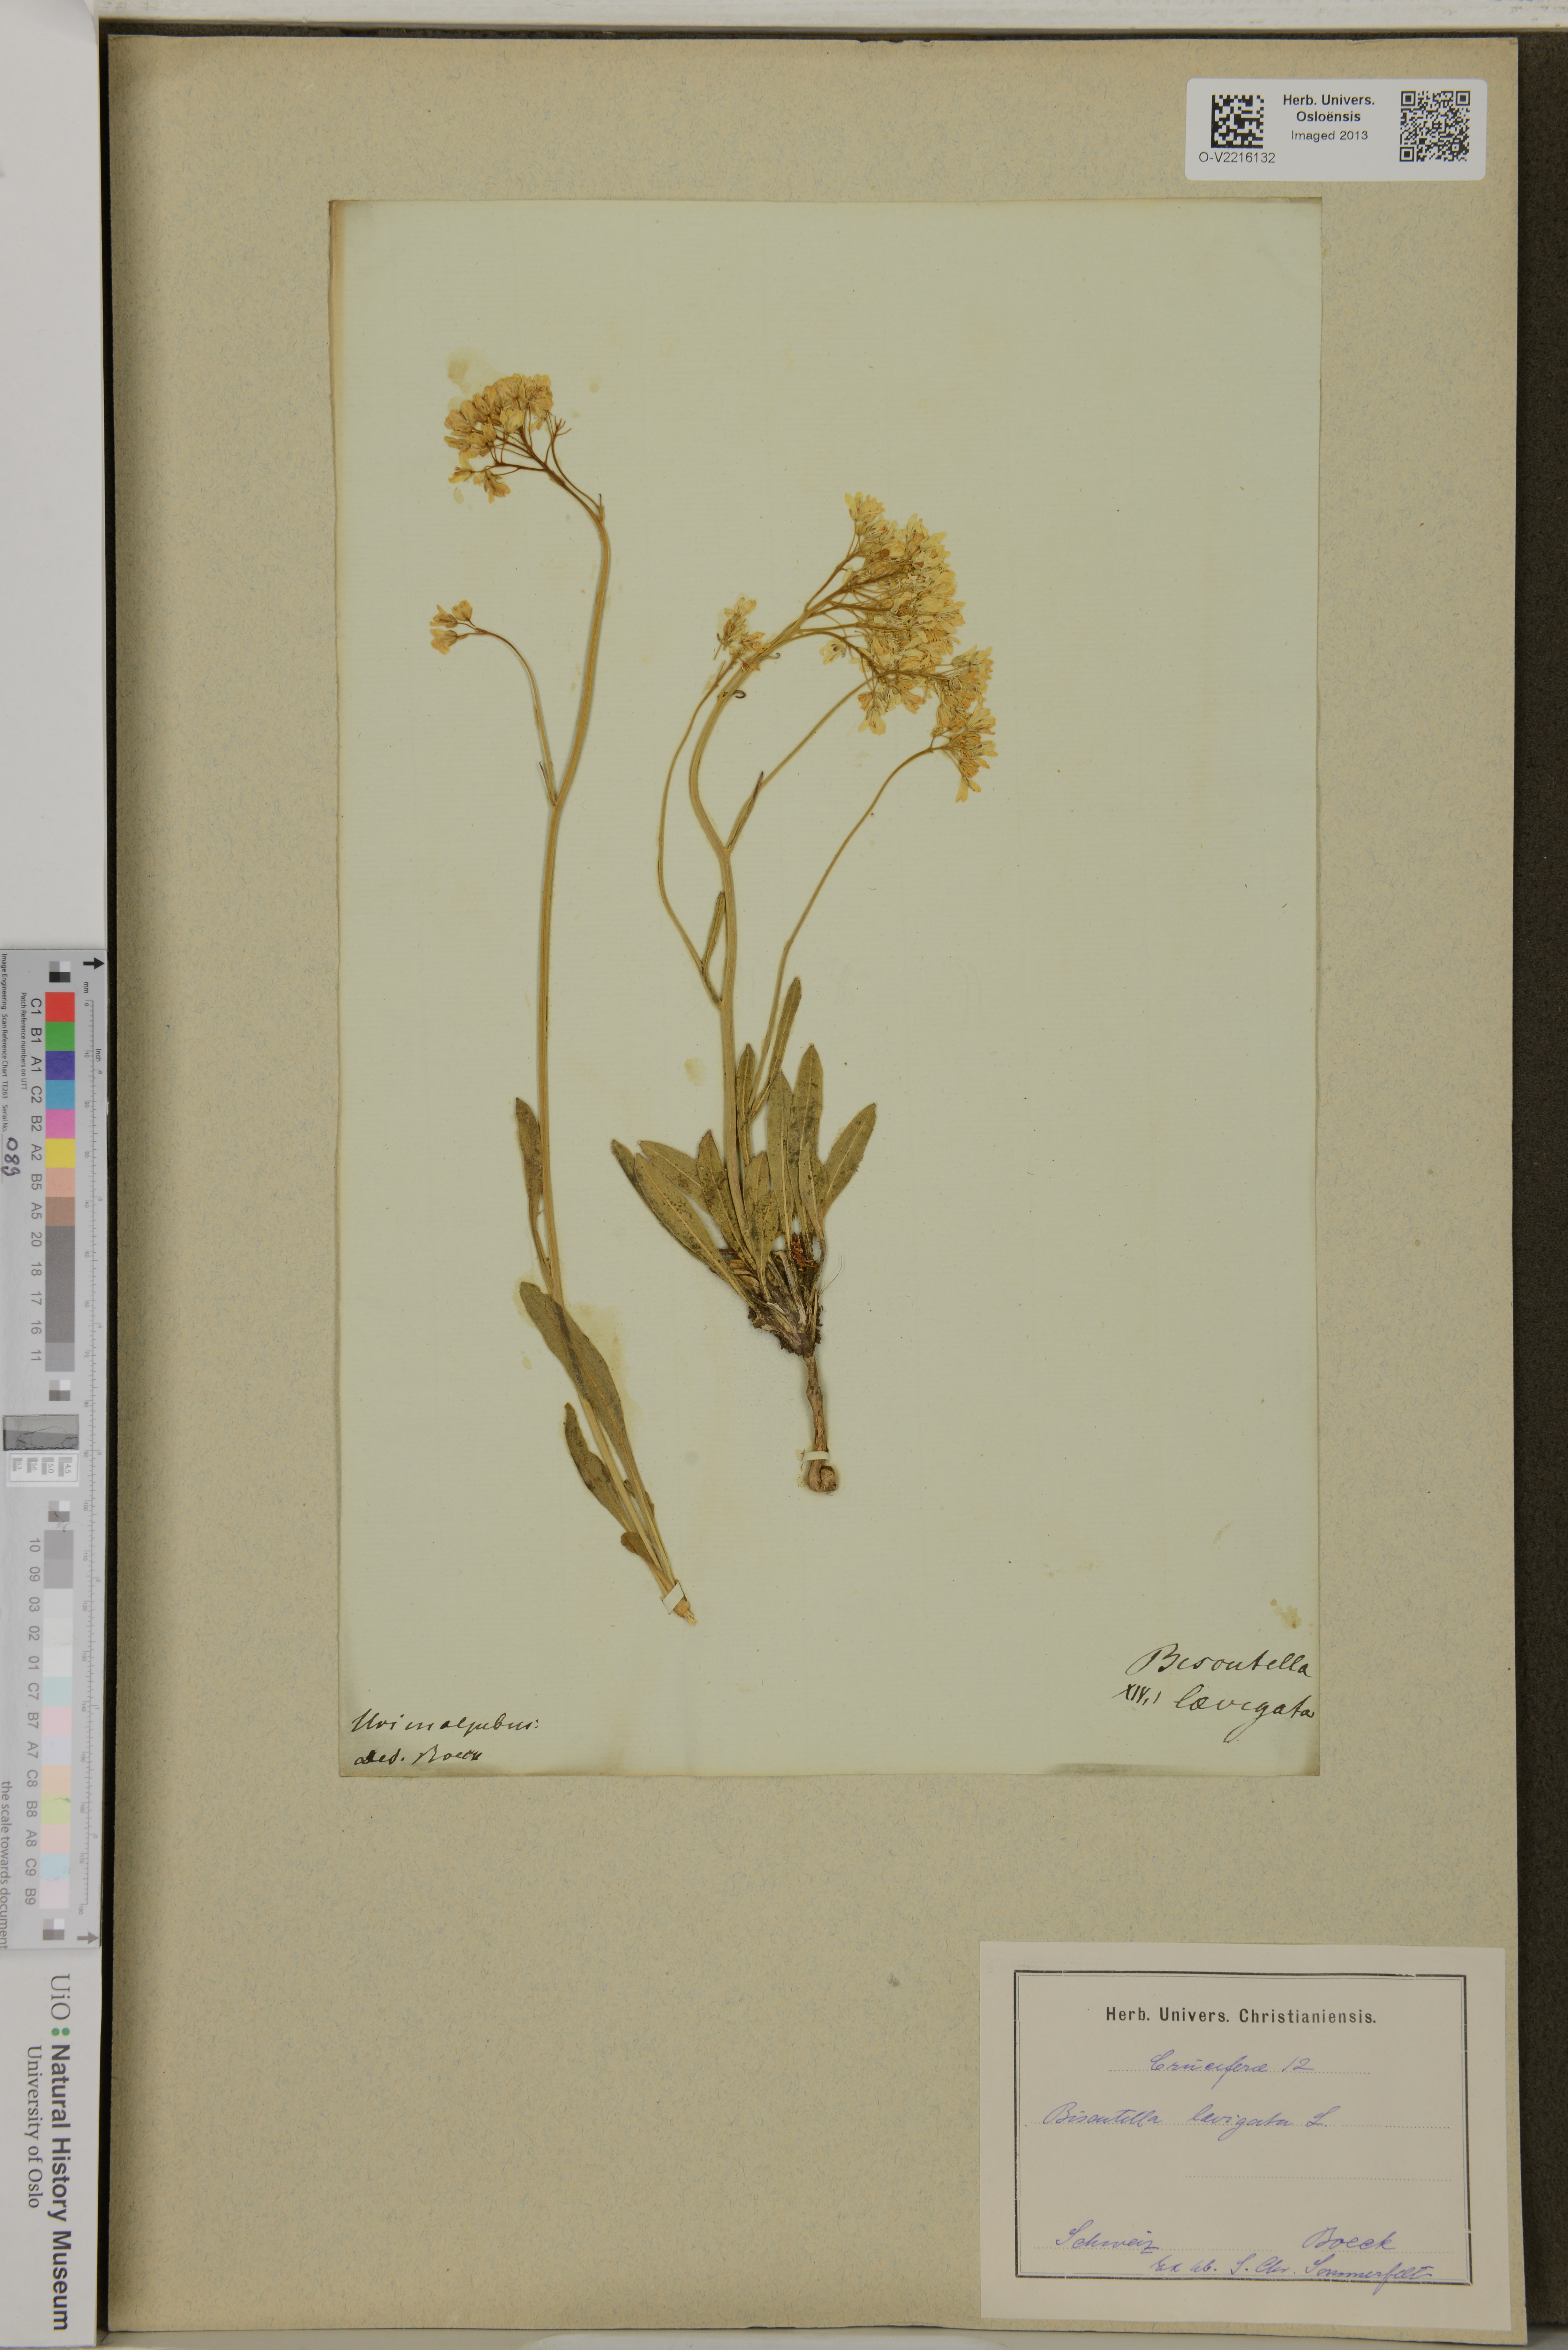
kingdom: Plantae
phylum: Tracheophyta
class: Magnoliopsida
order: Brassicales
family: Brassicaceae
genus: Biscutella
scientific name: Biscutella laevigata
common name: Buckler mustard
